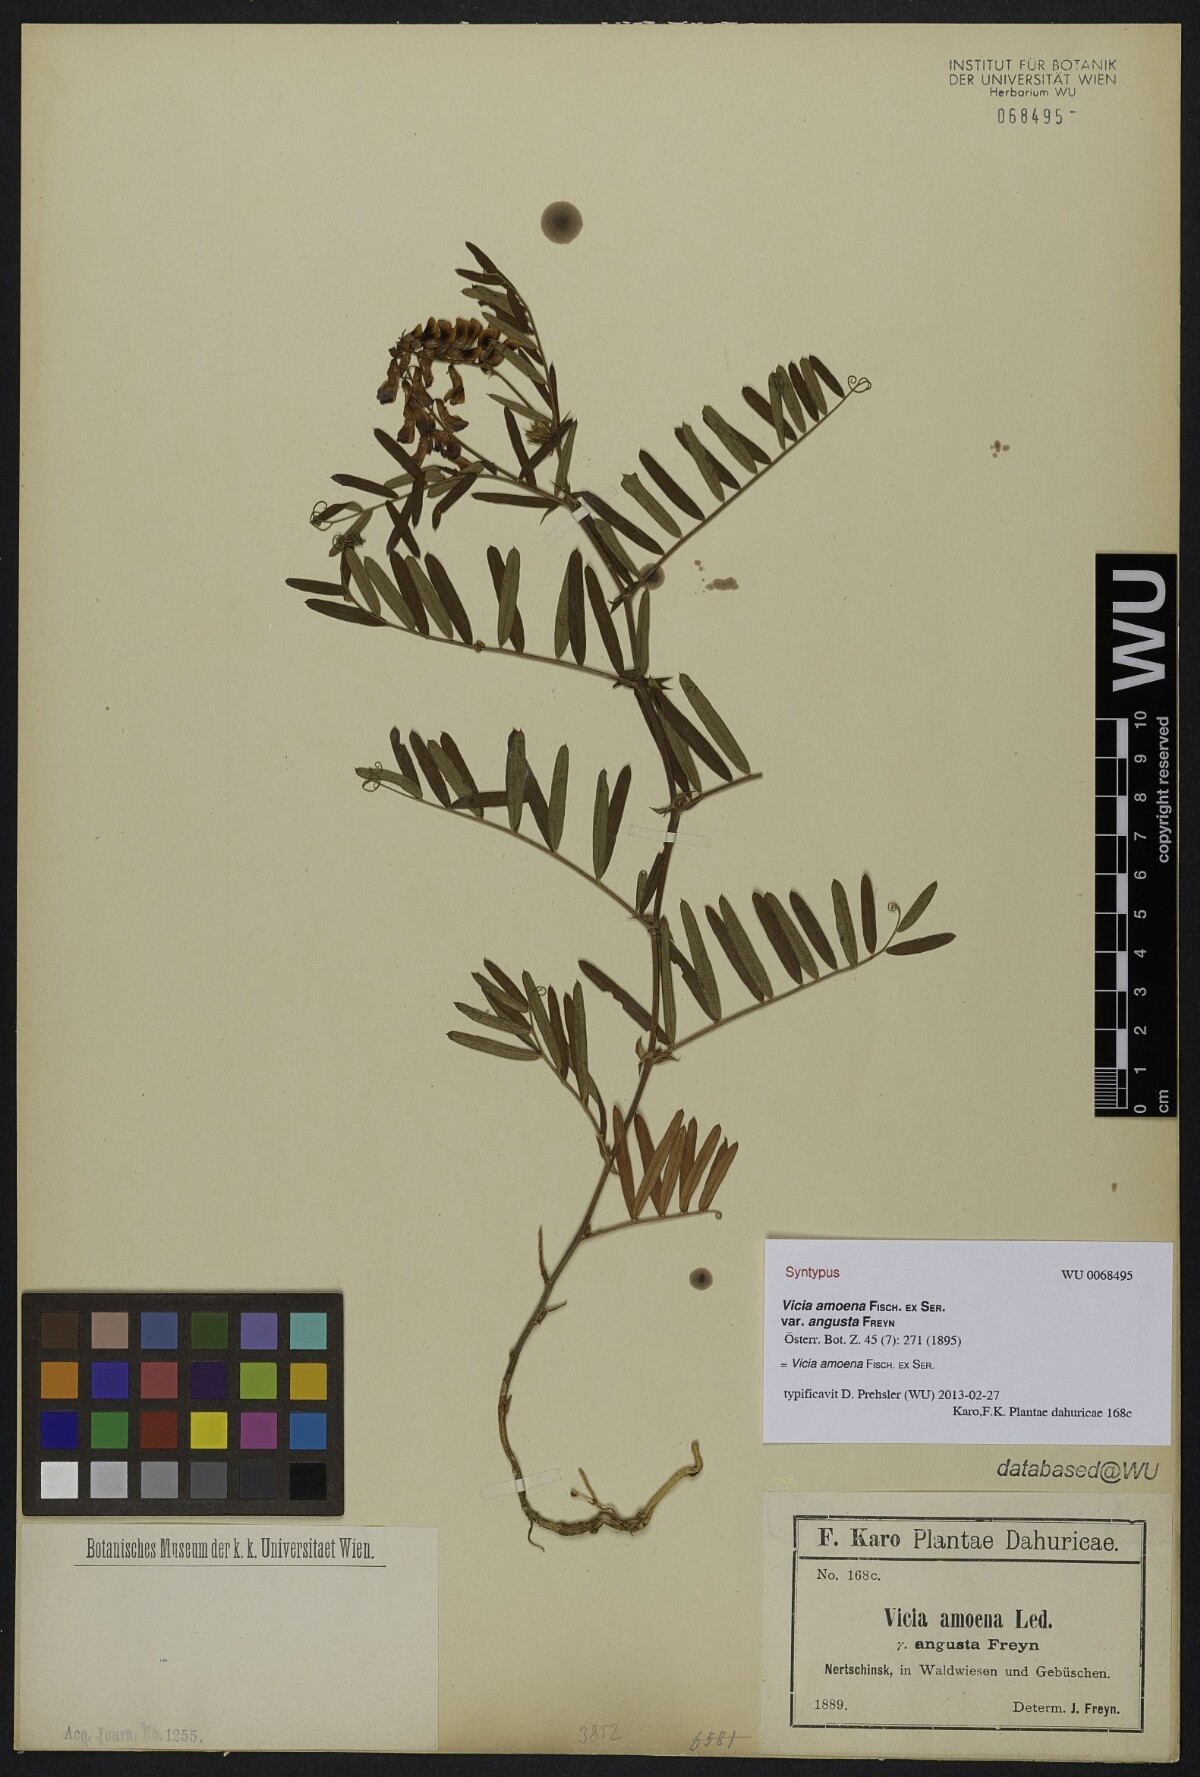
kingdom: Plantae
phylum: Tracheophyta
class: Magnoliopsida
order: Fabales
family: Fabaceae
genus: Vicia
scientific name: Vicia amoena
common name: Cheder ebs
